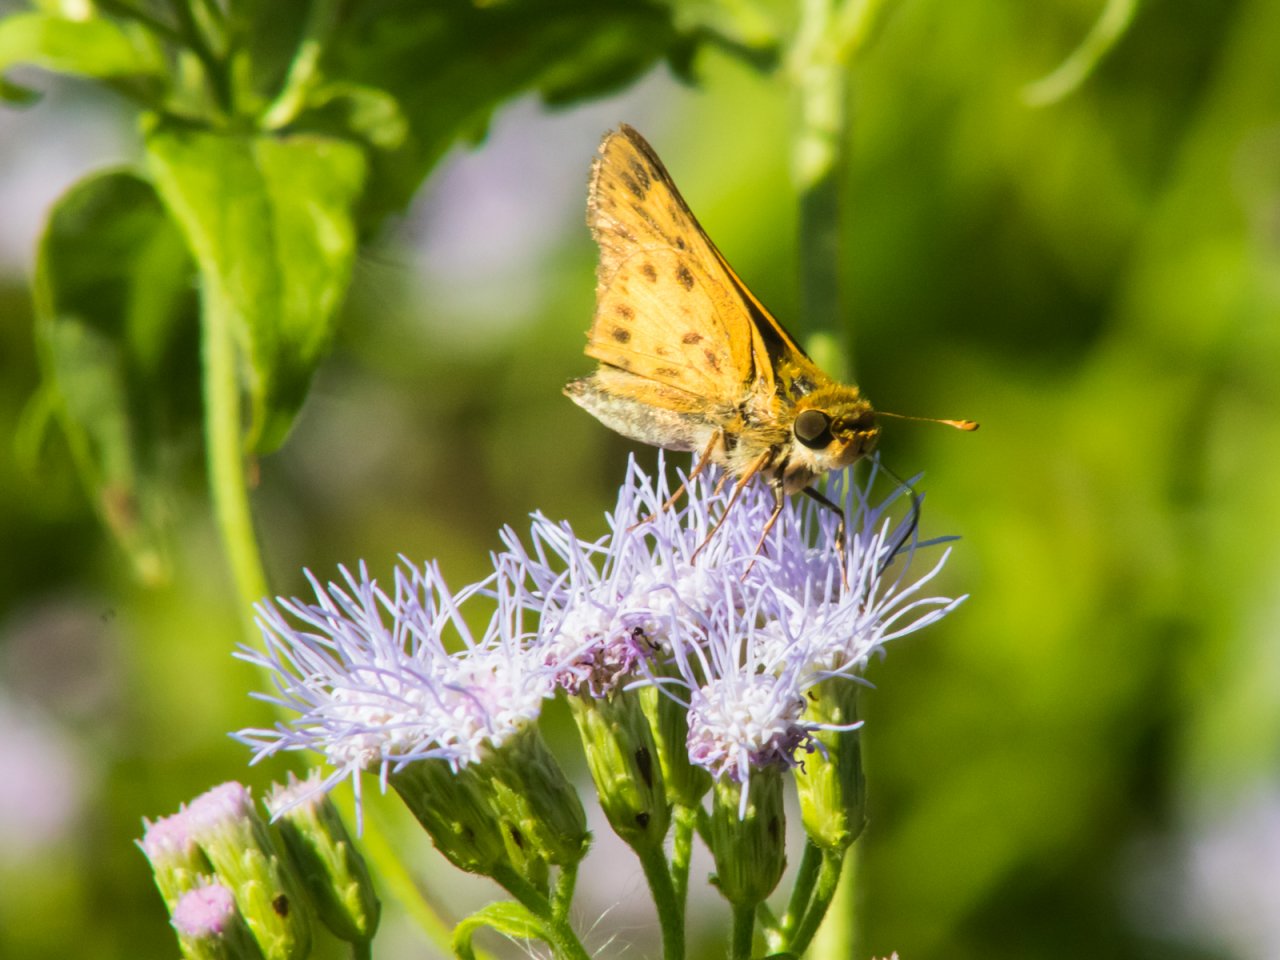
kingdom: Animalia
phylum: Arthropoda
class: Insecta
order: Lepidoptera
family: Hesperiidae
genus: Hylephila
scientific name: Hylephila phyleus
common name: Fiery Skipper
